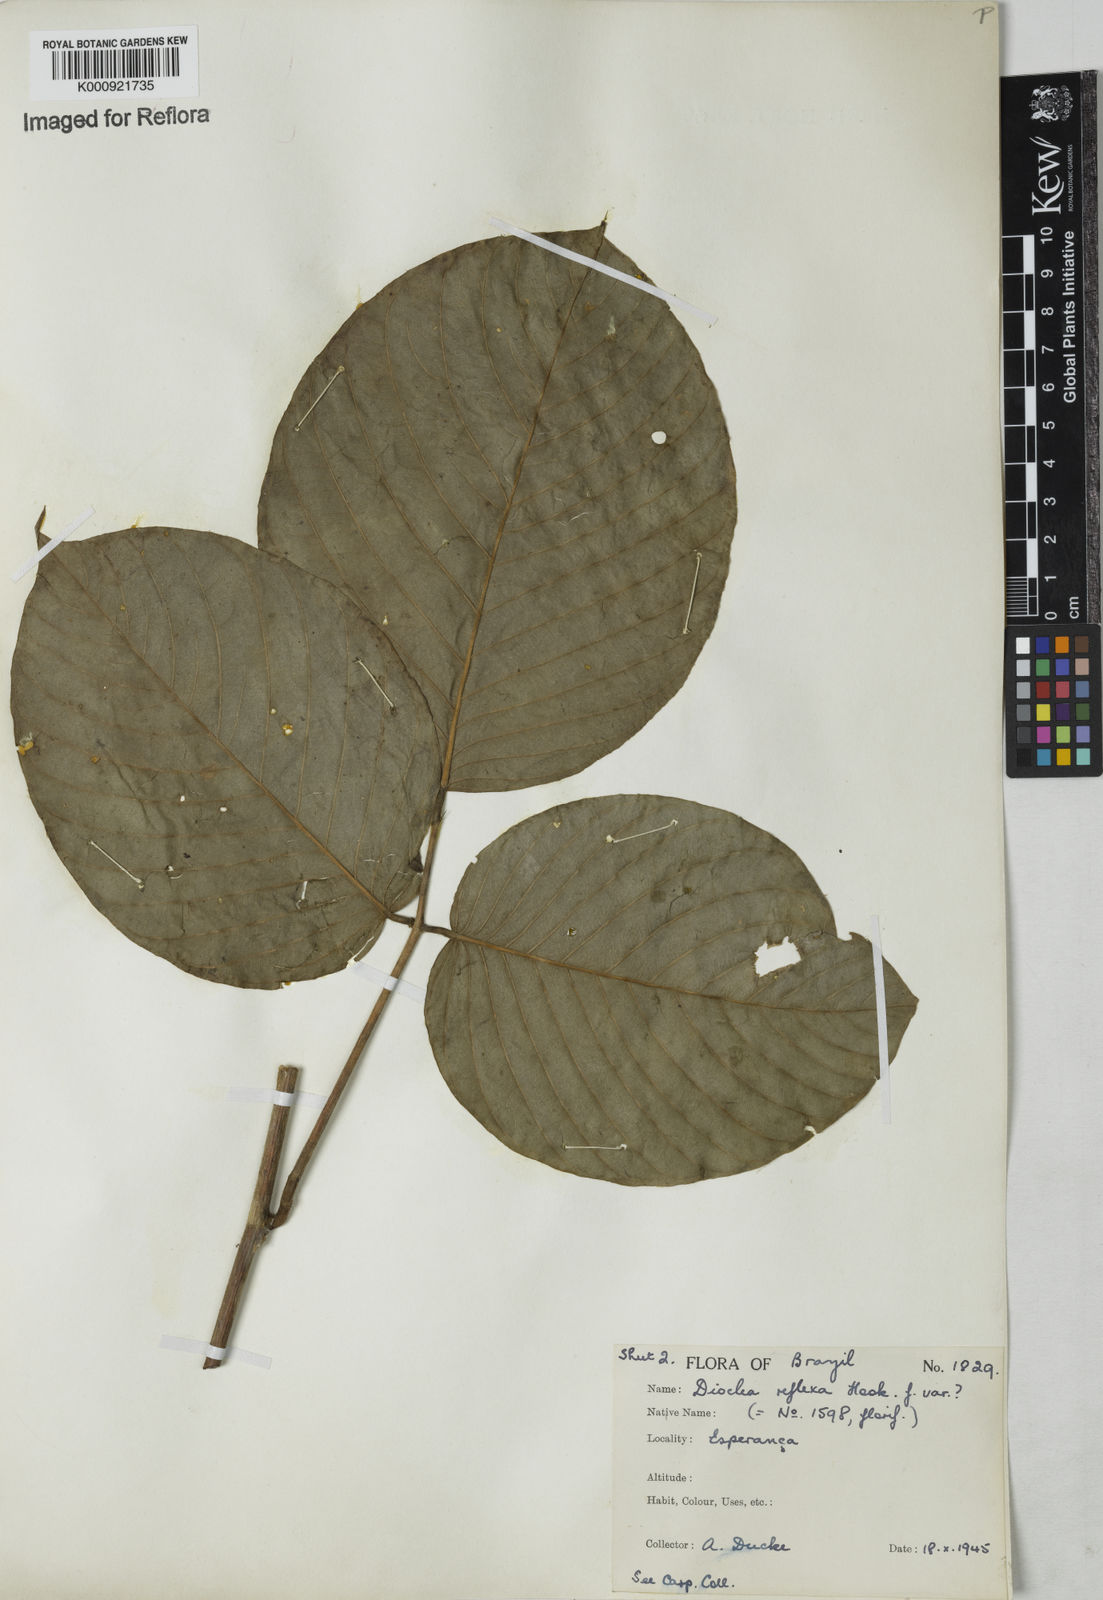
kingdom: Plantae
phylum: Tracheophyta
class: Magnoliopsida
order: Fabales
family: Fabaceae
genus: Macropsychanthus
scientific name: Macropsychanthus comosus
